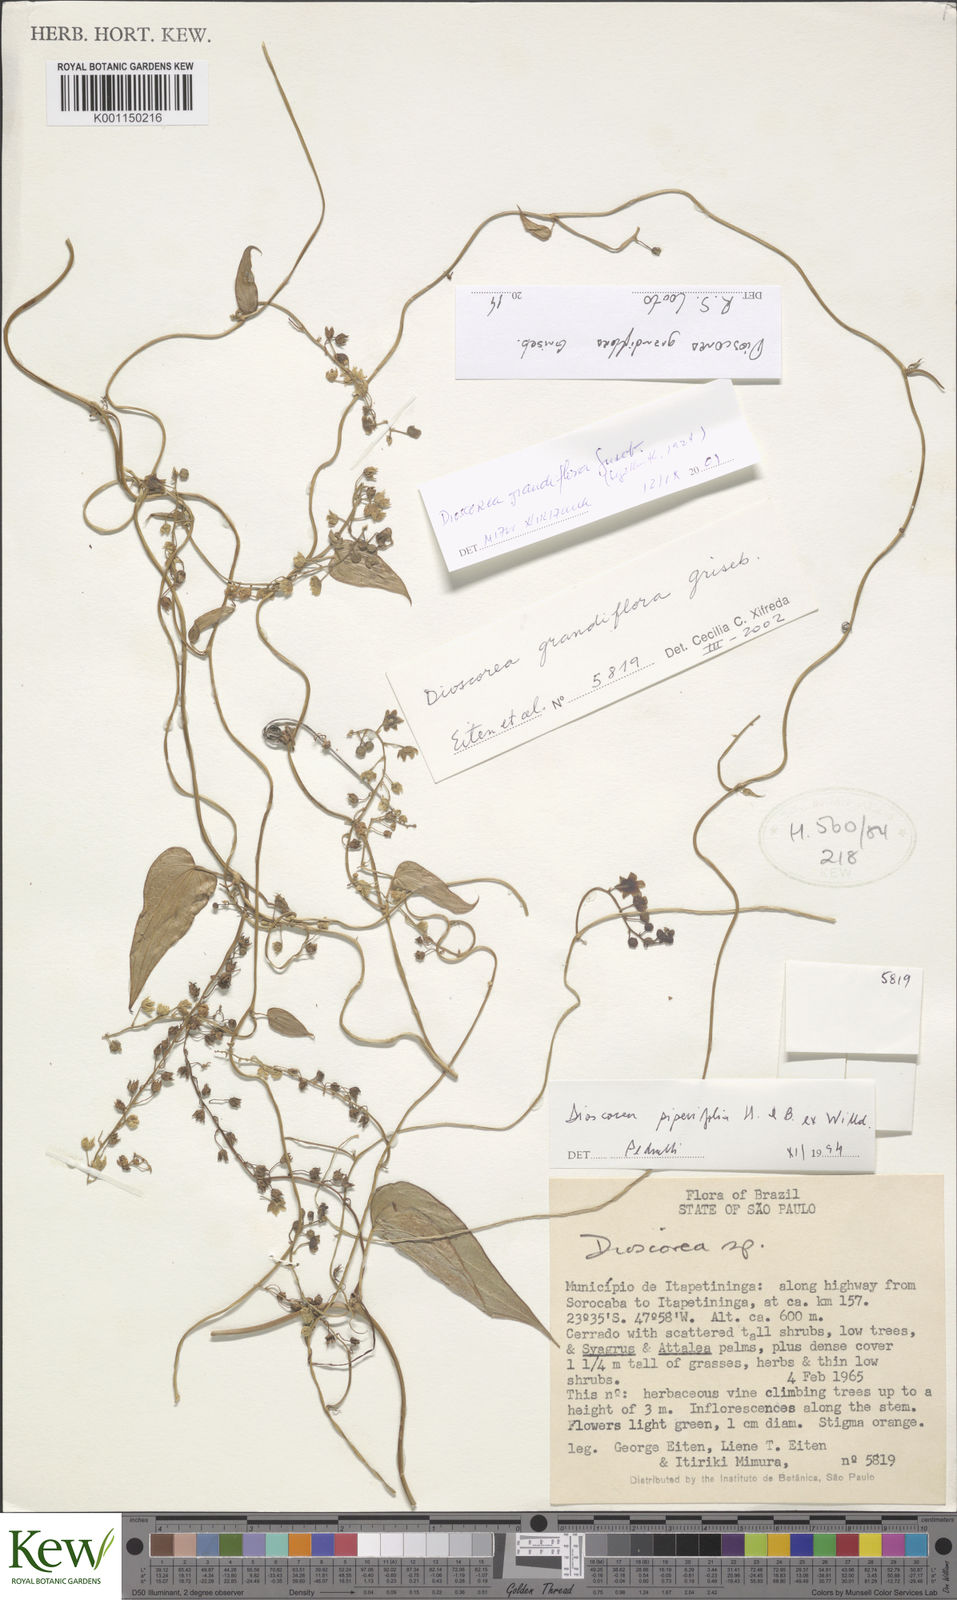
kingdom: Plantae
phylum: Tracheophyta
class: Liliopsida
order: Dioscoreales
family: Dioscoreaceae
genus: Dioscorea
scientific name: Dioscorea grandiflora
